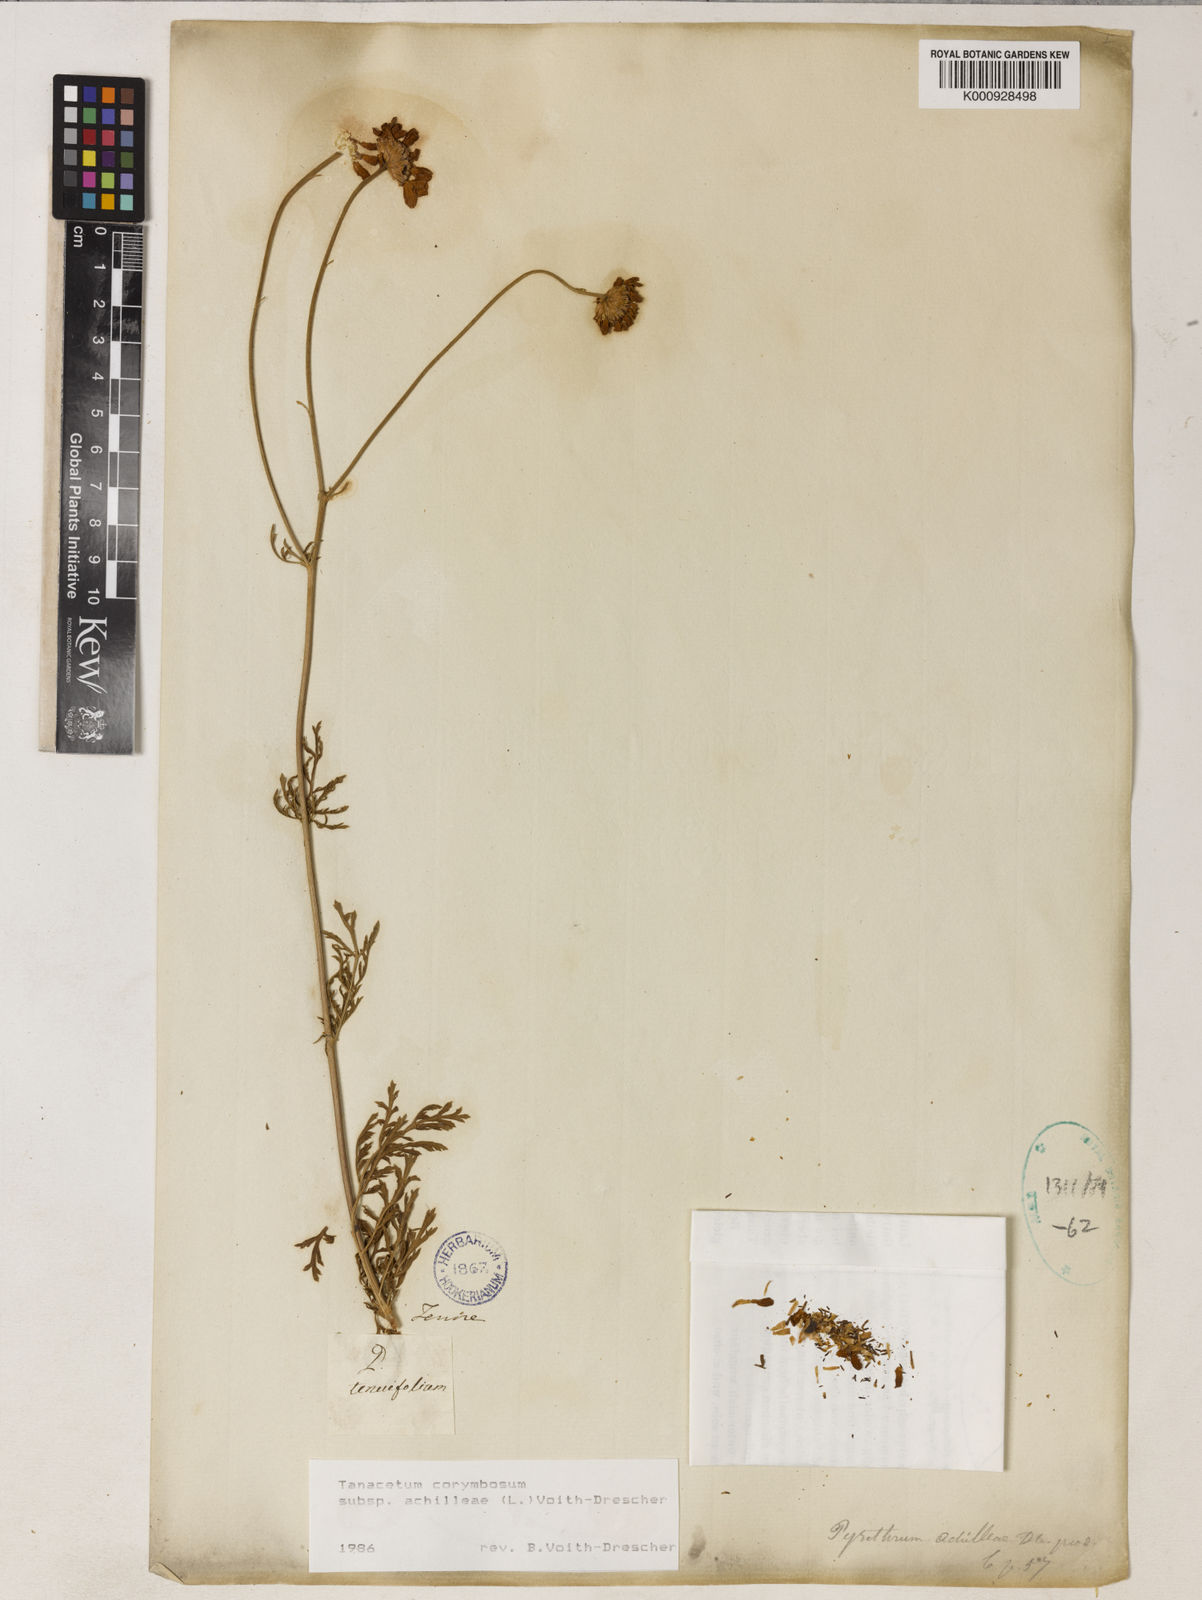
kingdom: Plantae
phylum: Tracheophyta
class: Magnoliopsida
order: Asterales
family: Asteraceae
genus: Tanacetum
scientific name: Tanacetum corymbosum
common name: Scentless feverfew
